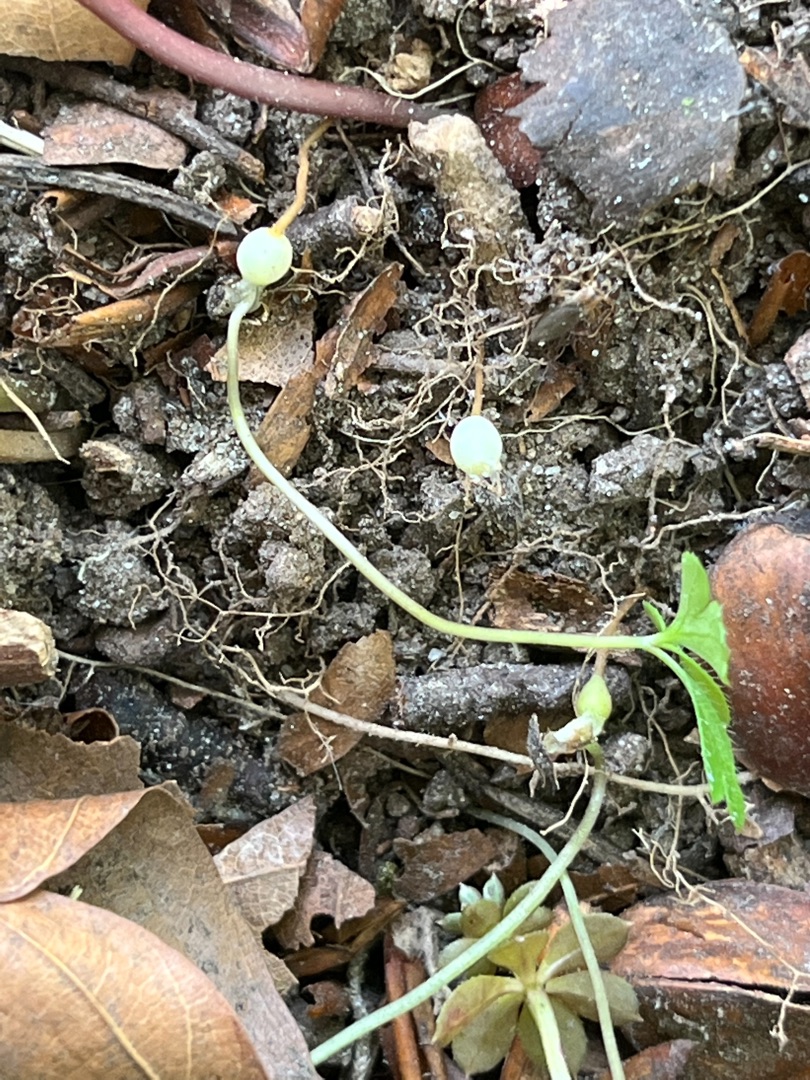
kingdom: Plantae
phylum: Tracheophyta
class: Magnoliopsida
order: Ranunculales
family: Ranunculaceae
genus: Anemone
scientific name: Anemone nemorosa
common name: Hvid anemone
